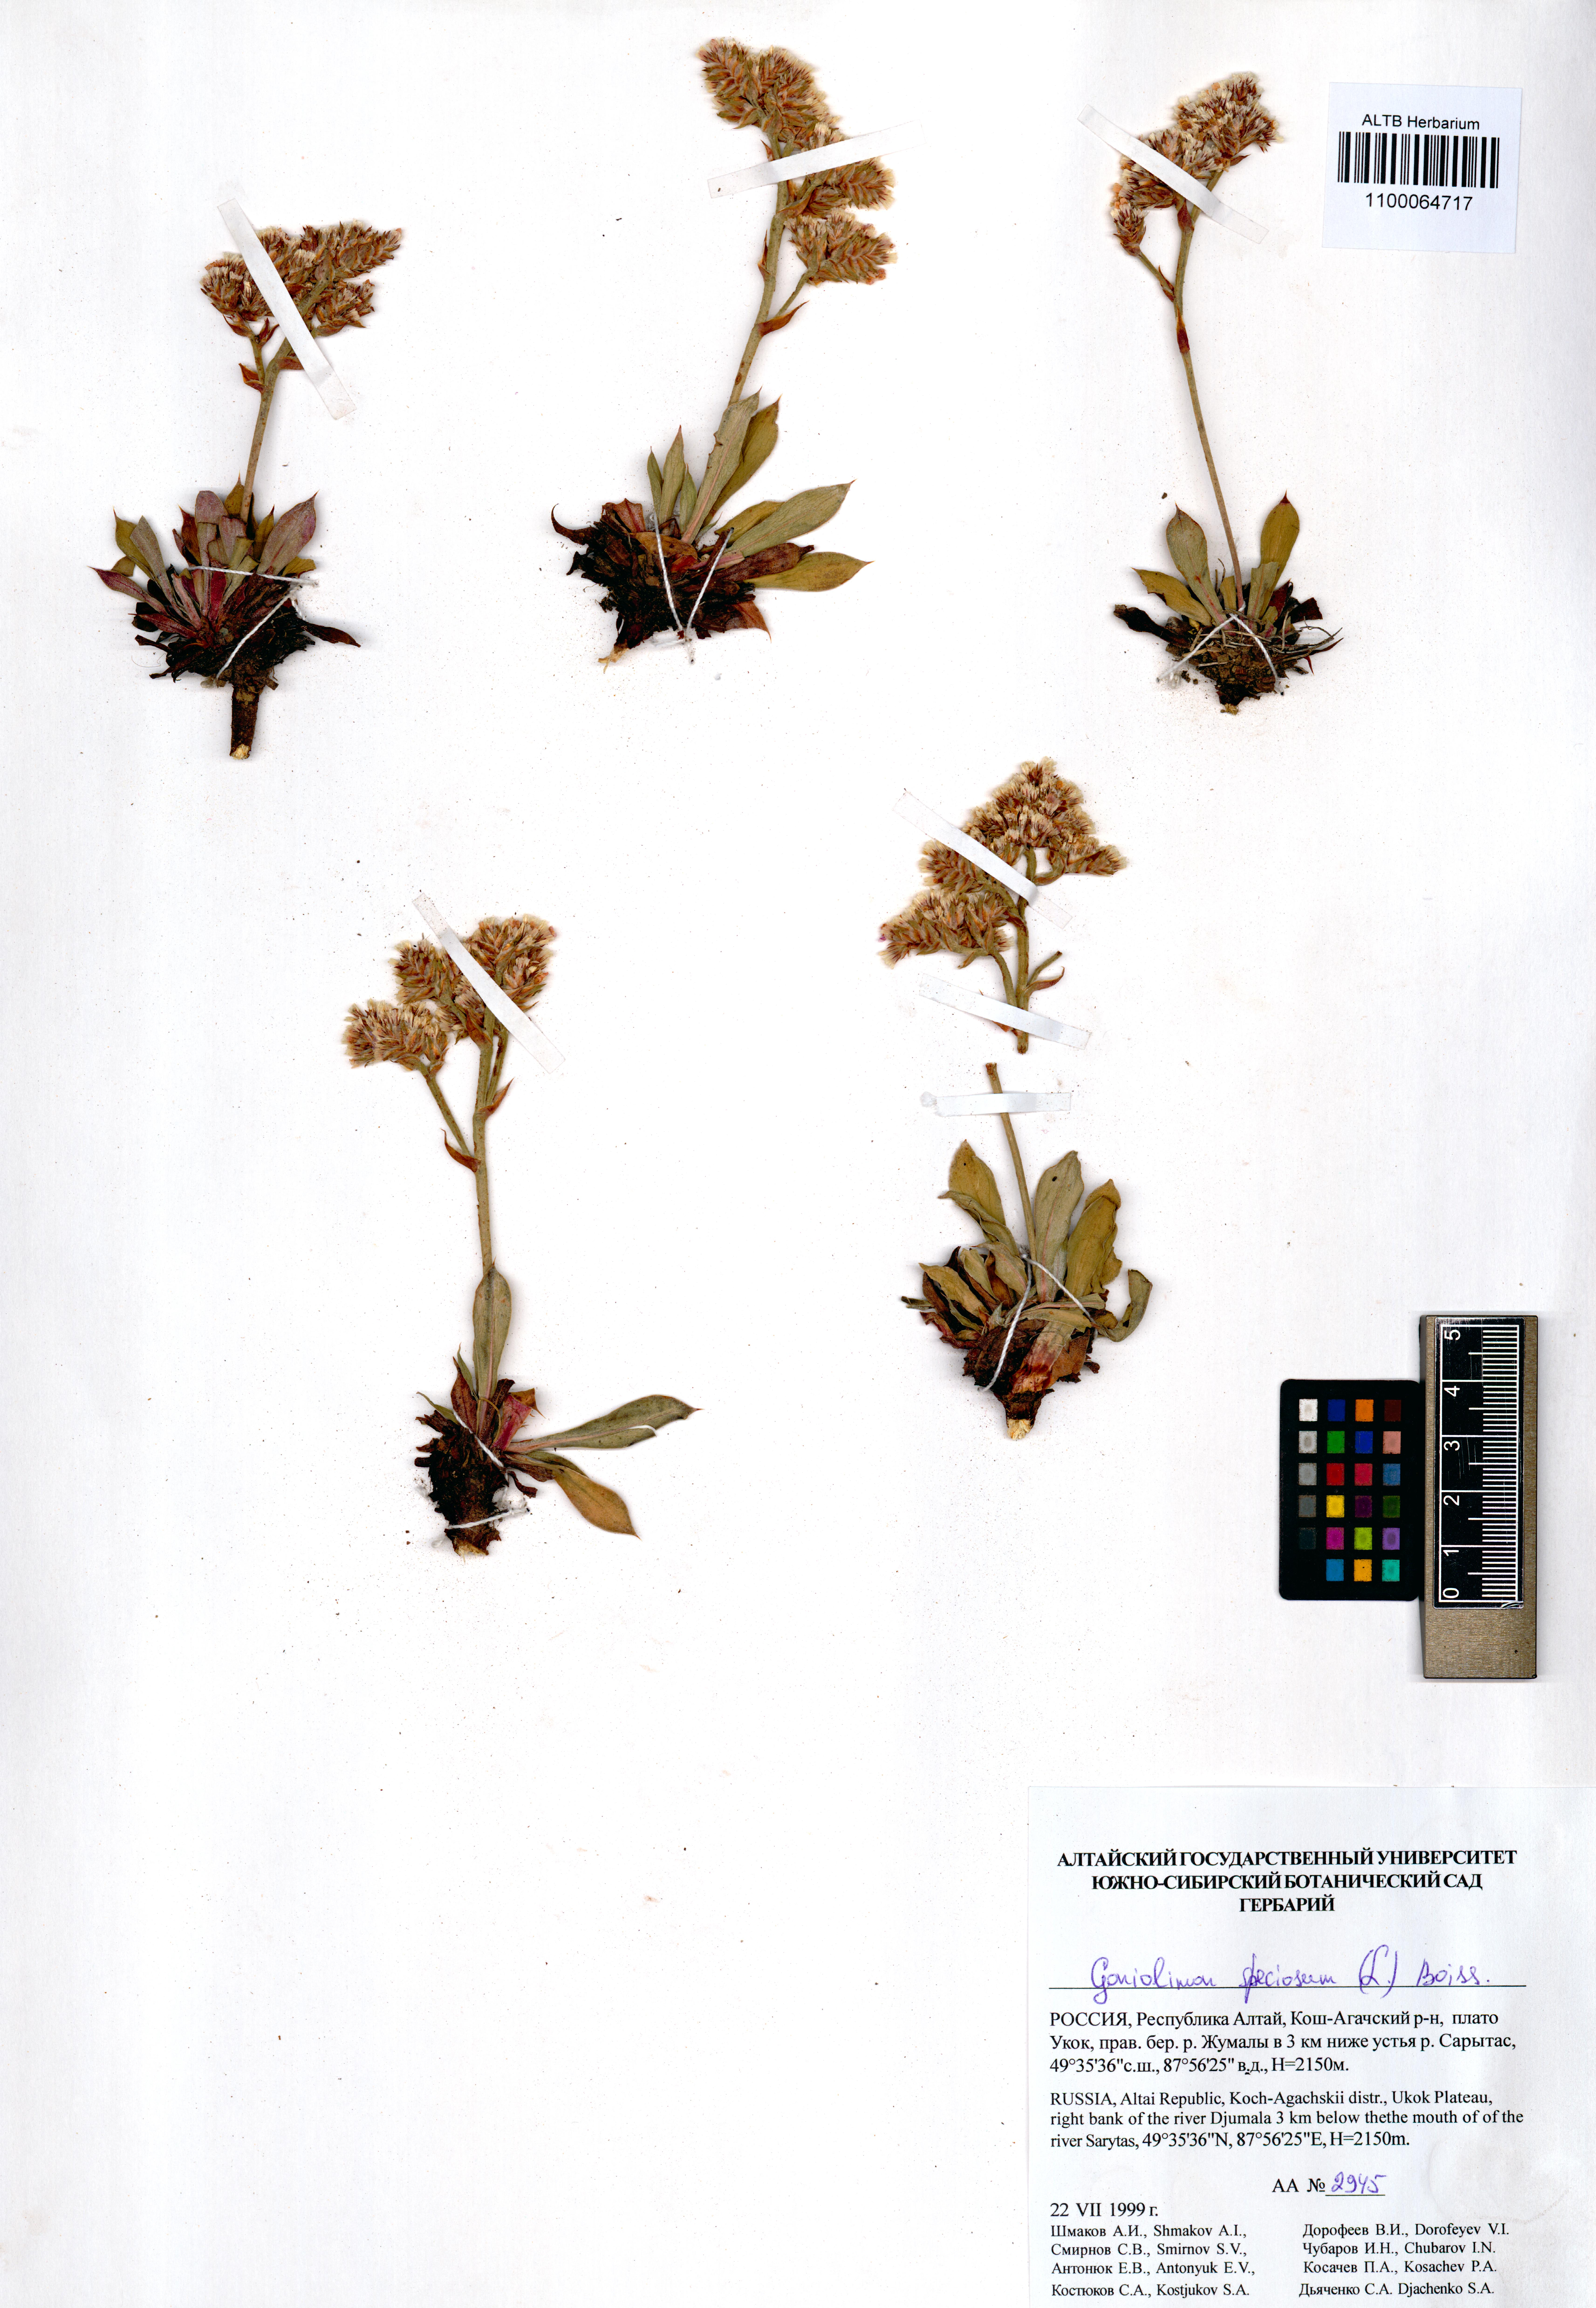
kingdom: Plantae
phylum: Tracheophyta
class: Magnoliopsida
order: Caryophyllales
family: Plumbaginaceae
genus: Goniolimon
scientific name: Goniolimon speciosum
